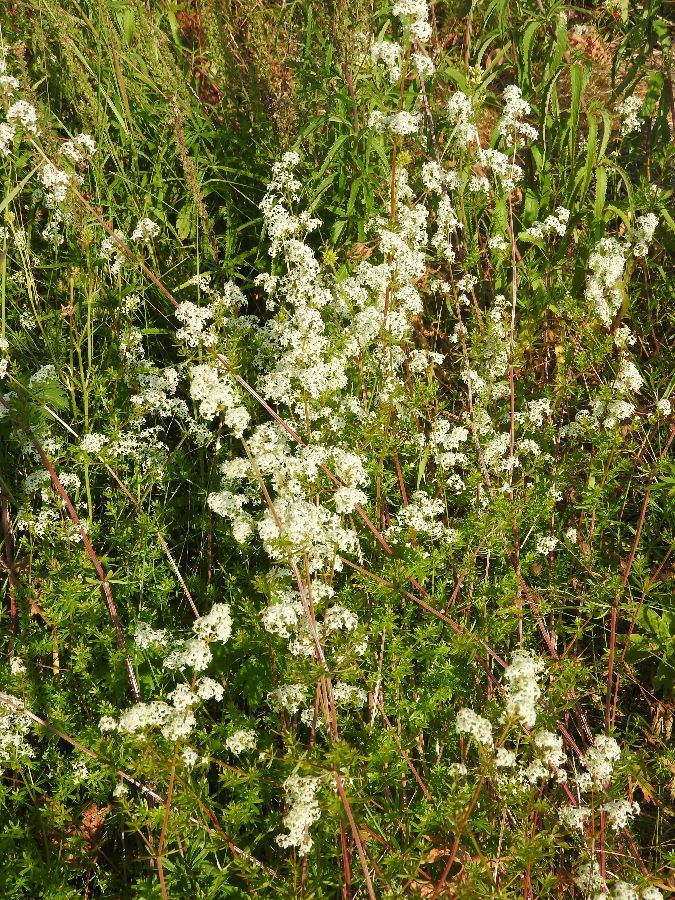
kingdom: Plantae
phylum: Tracheophyta
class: Magnoliopsida
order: Gentianales
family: Rubiaceae
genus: Galium
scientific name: Galium mollugo
